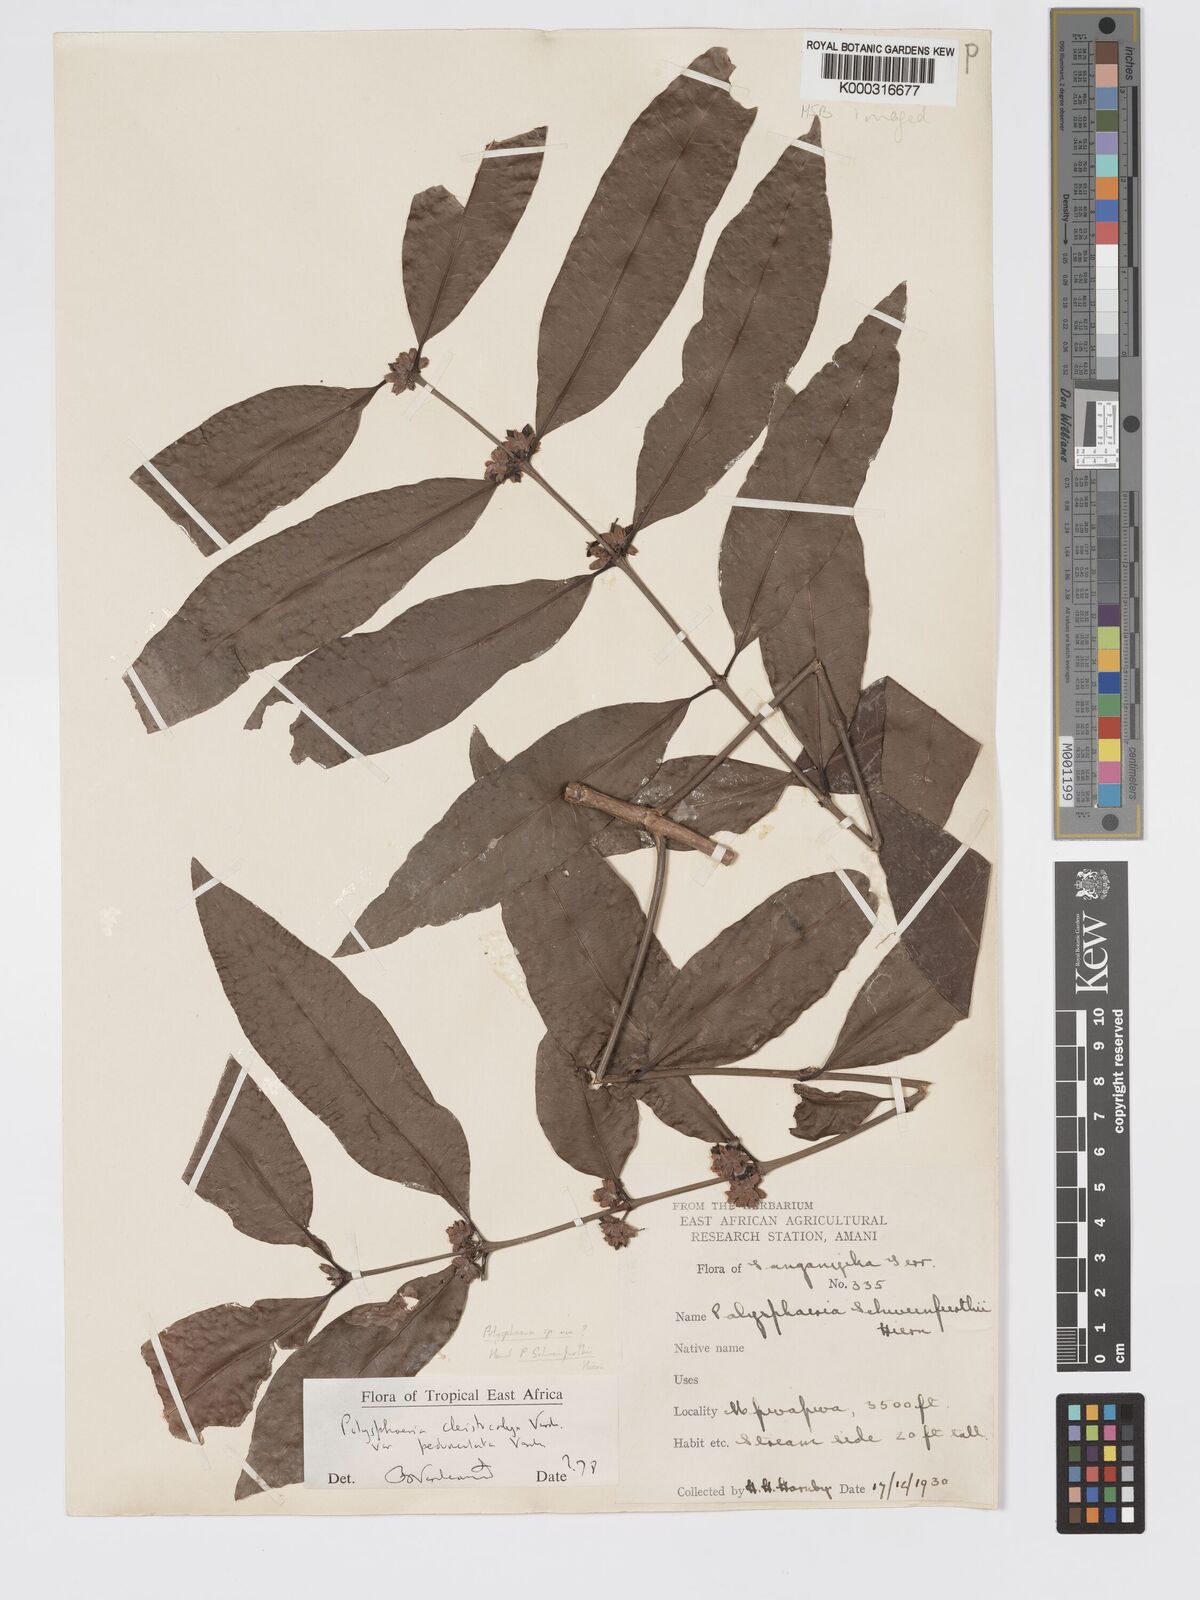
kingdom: Plantae
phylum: Tracheophyta
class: Magnoliopsida
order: Gentianales
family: Rubiaceae
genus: Polysphaeria
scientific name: Polysphaeria cleistocalyx
